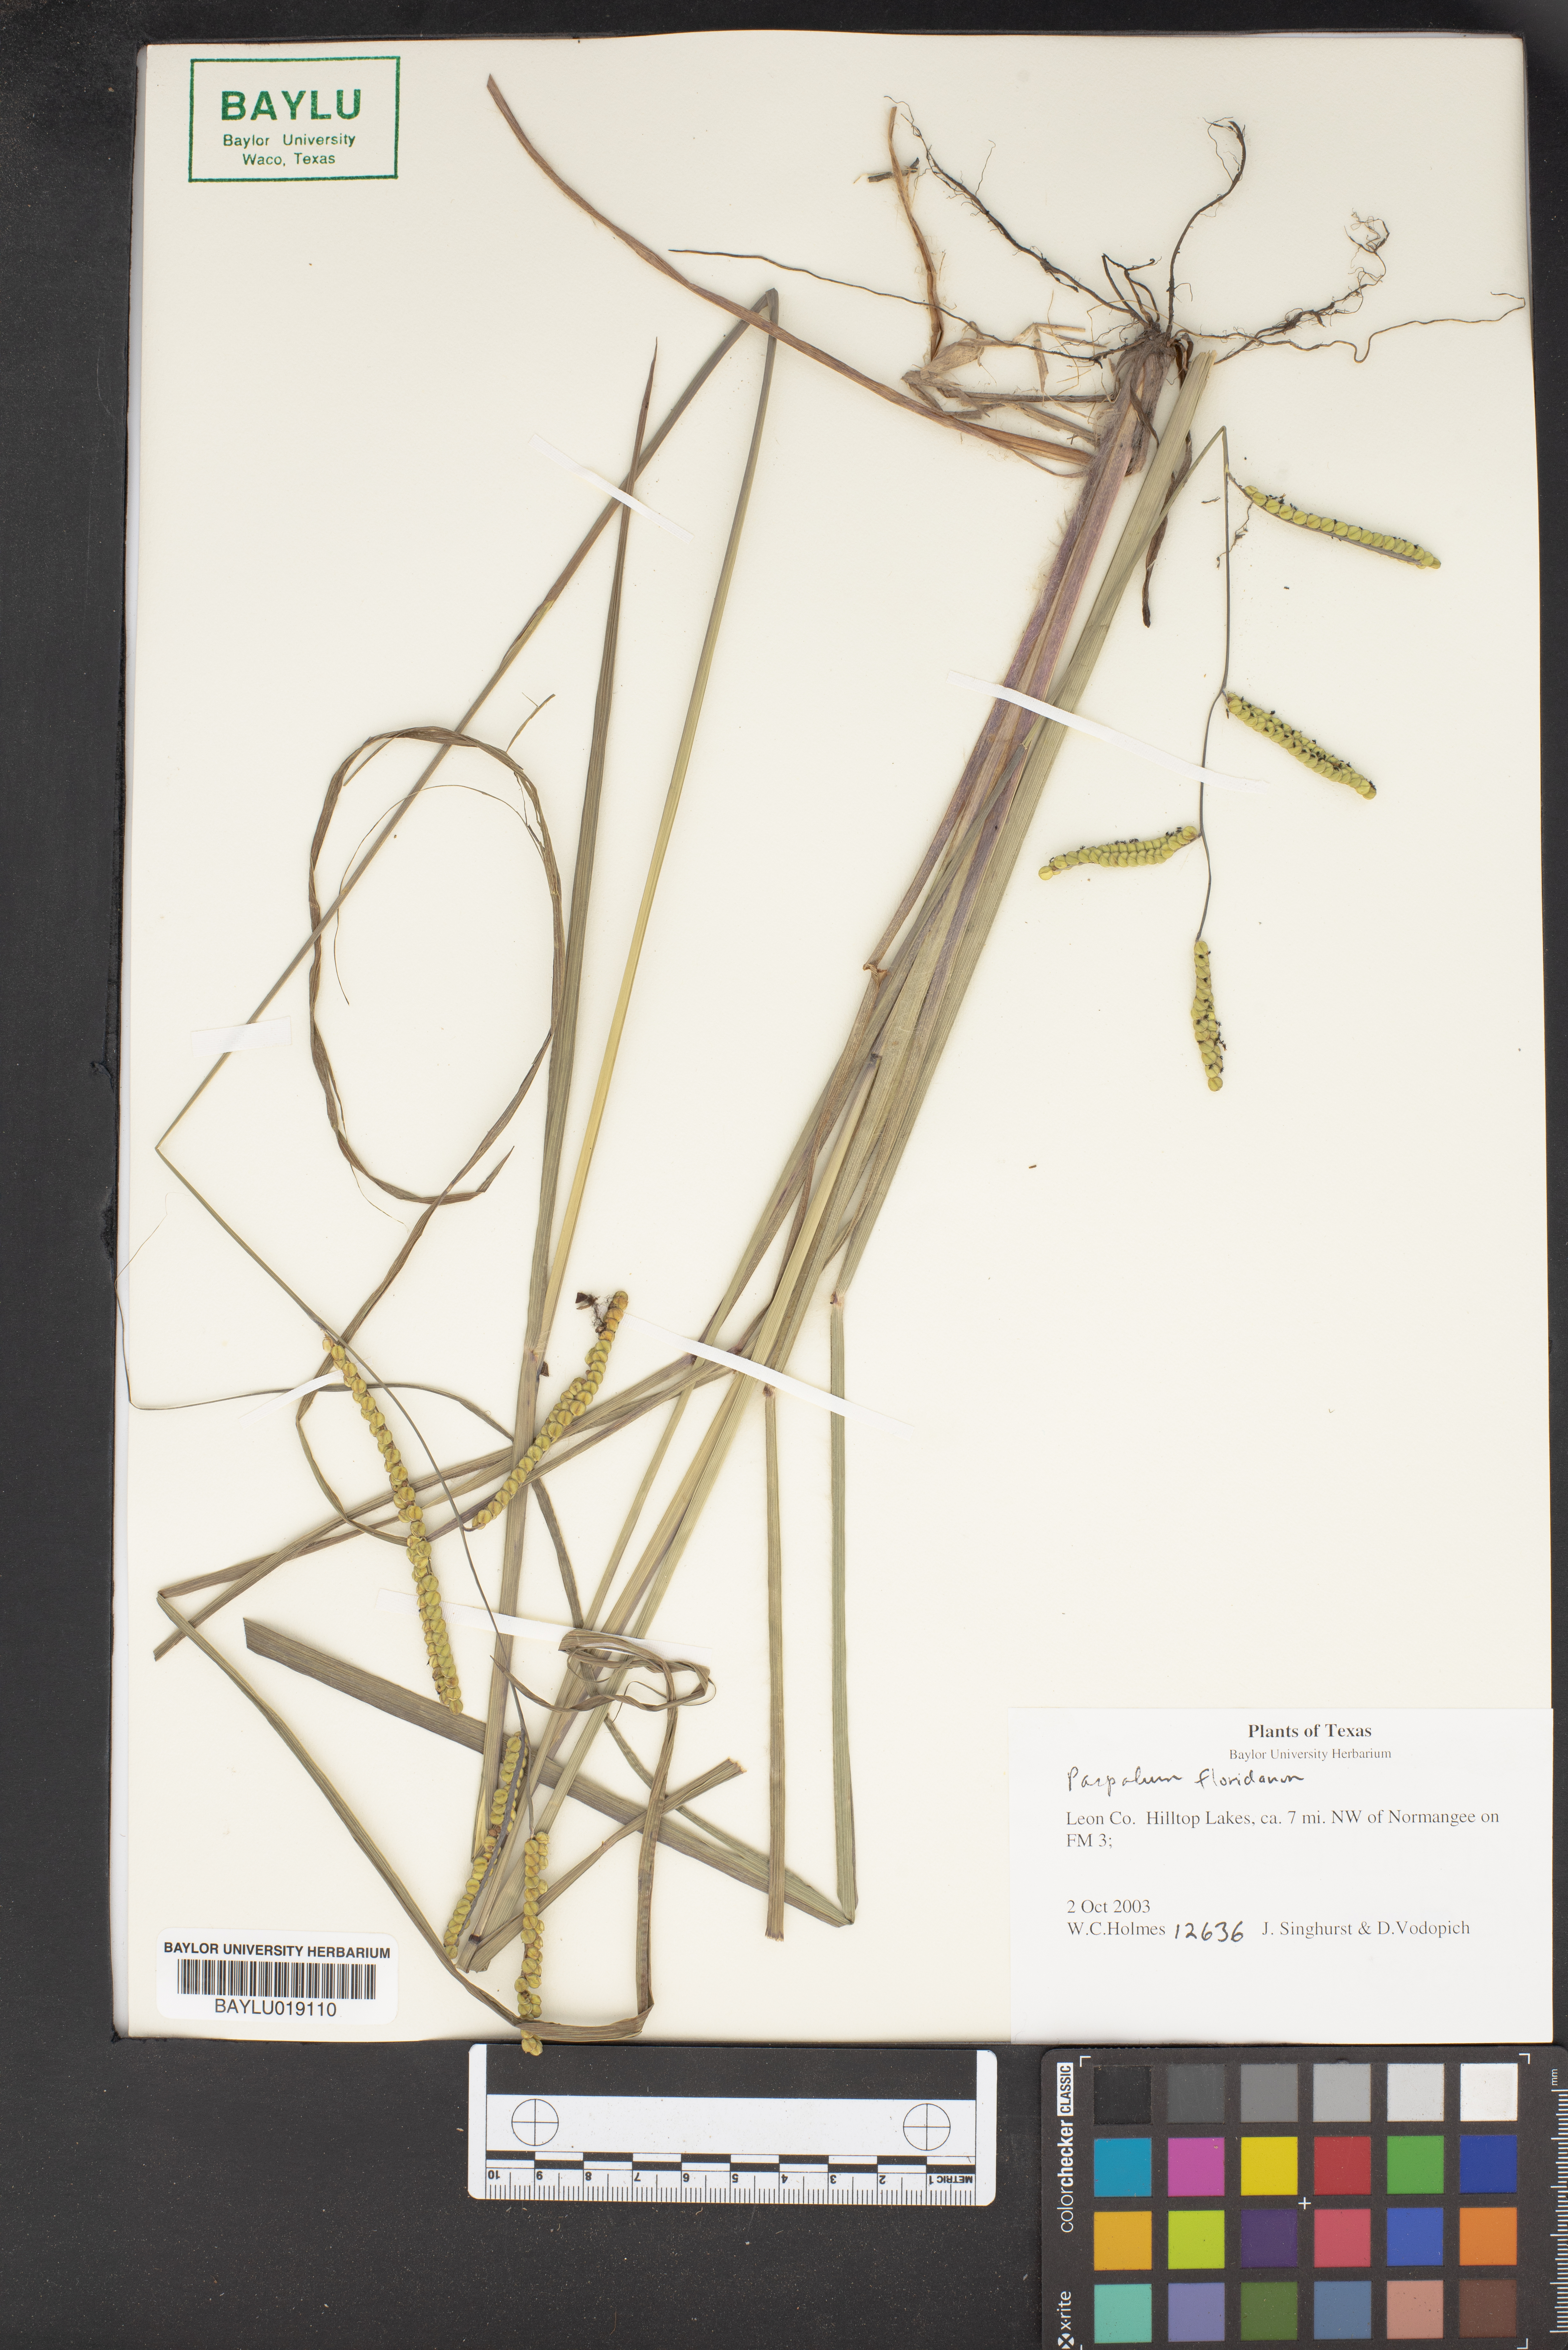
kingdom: Plantae
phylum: Tracheophyta
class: Liliopsida
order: Poales
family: Poaceae
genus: Paspalum
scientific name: Paspalum floridanum
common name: Florida paspalum
